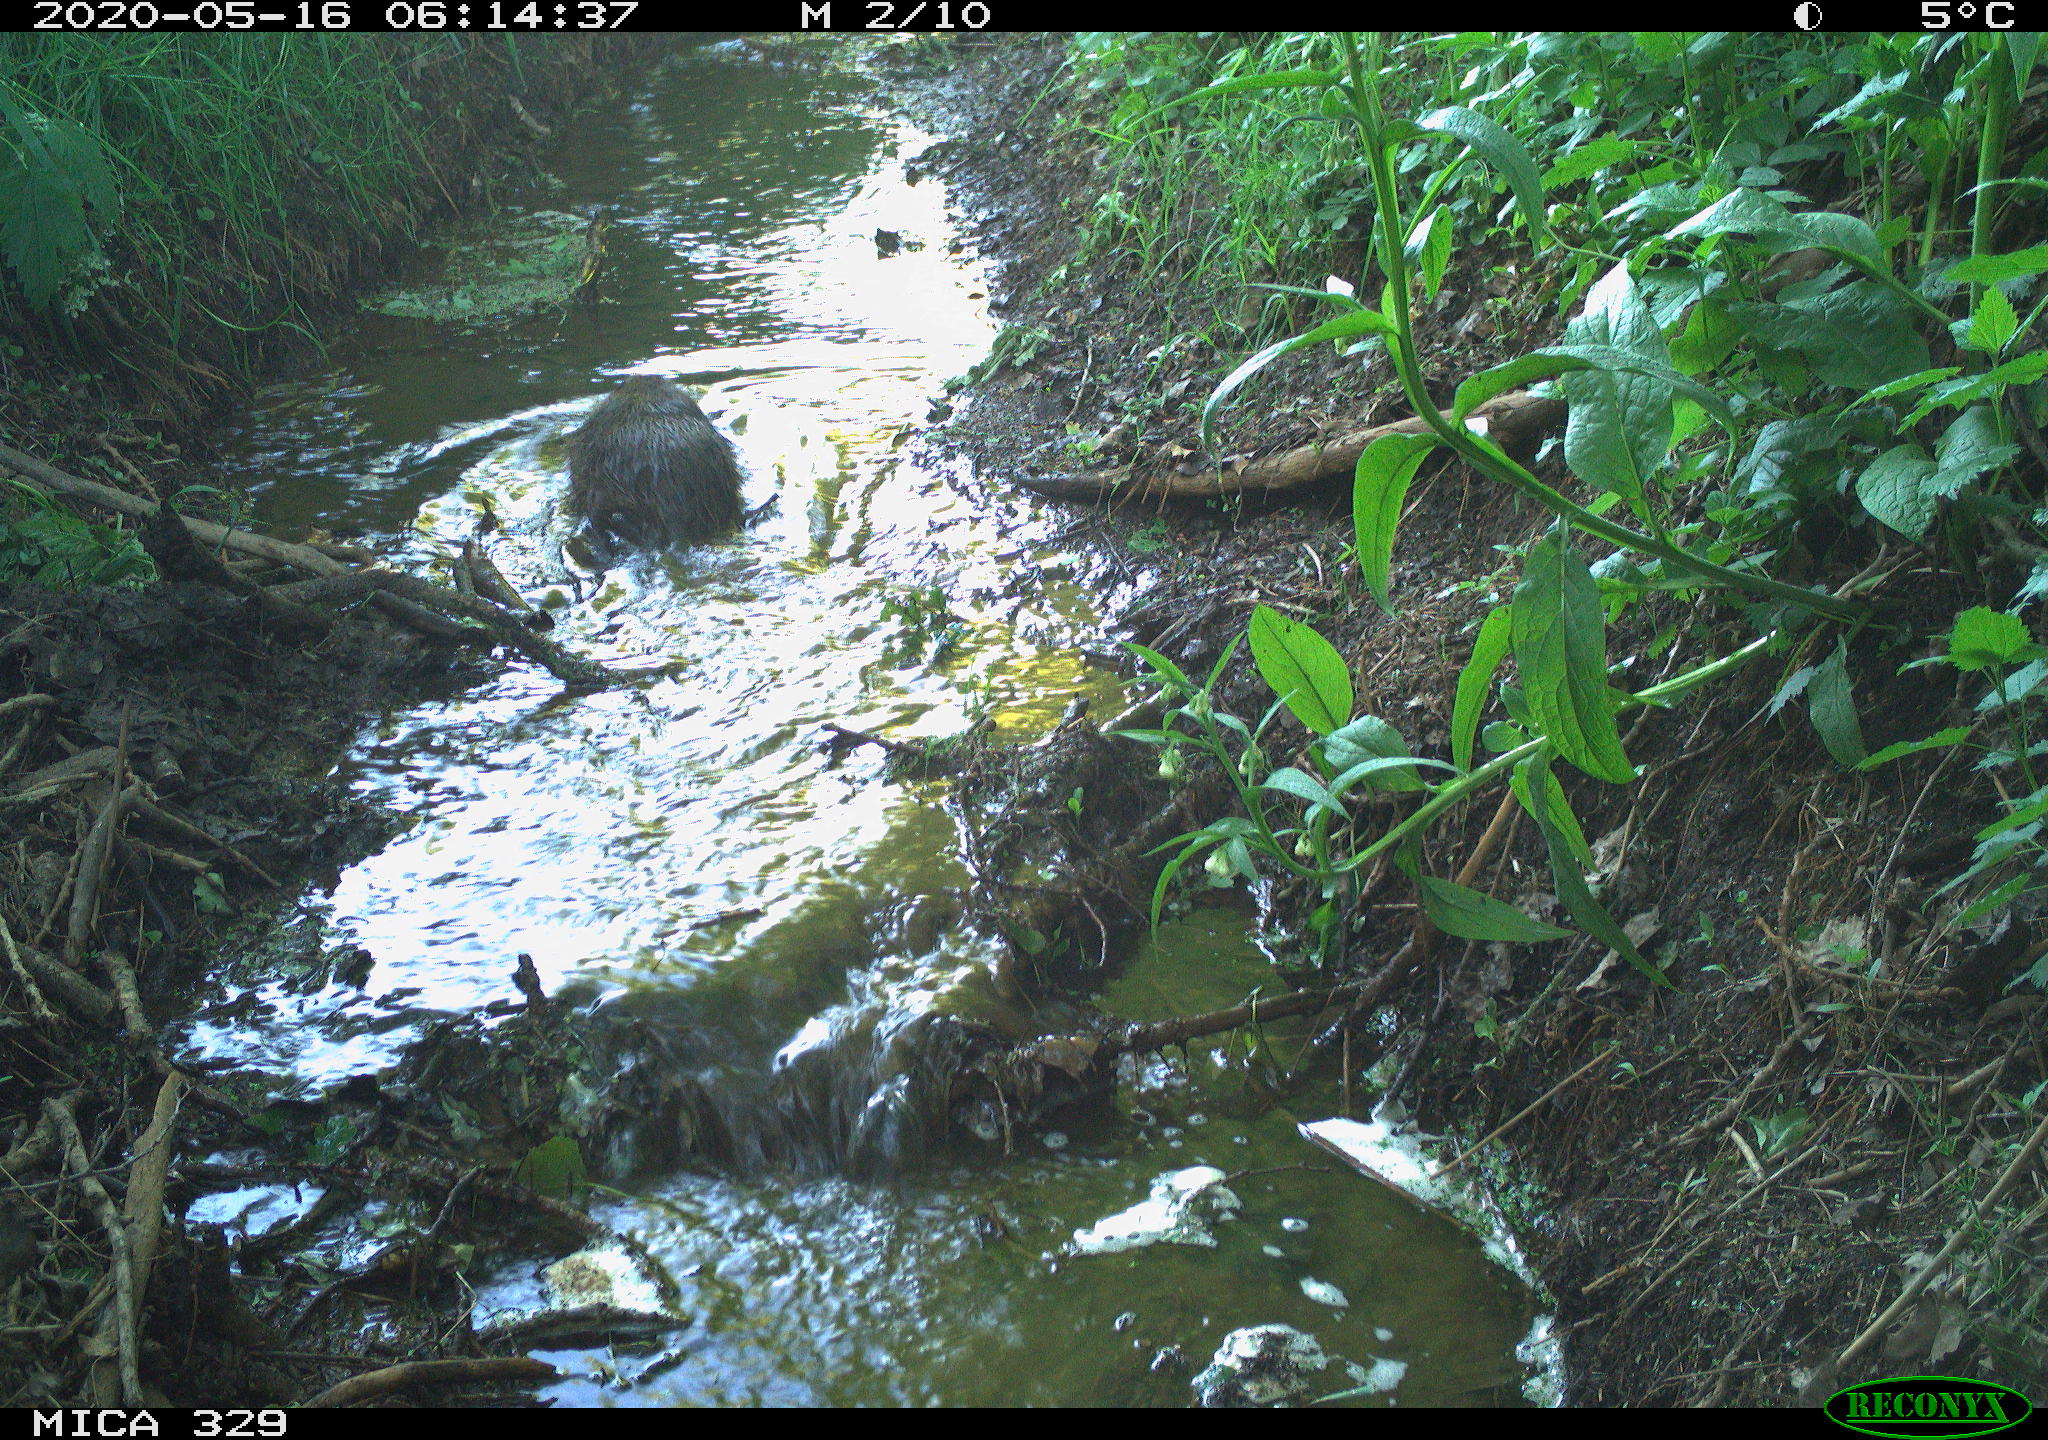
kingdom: Animalia
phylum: Chordata
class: Mammalia
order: Rodentia
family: Myocastoridae
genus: Myocastor
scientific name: Myocastor coypus
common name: Coypu
